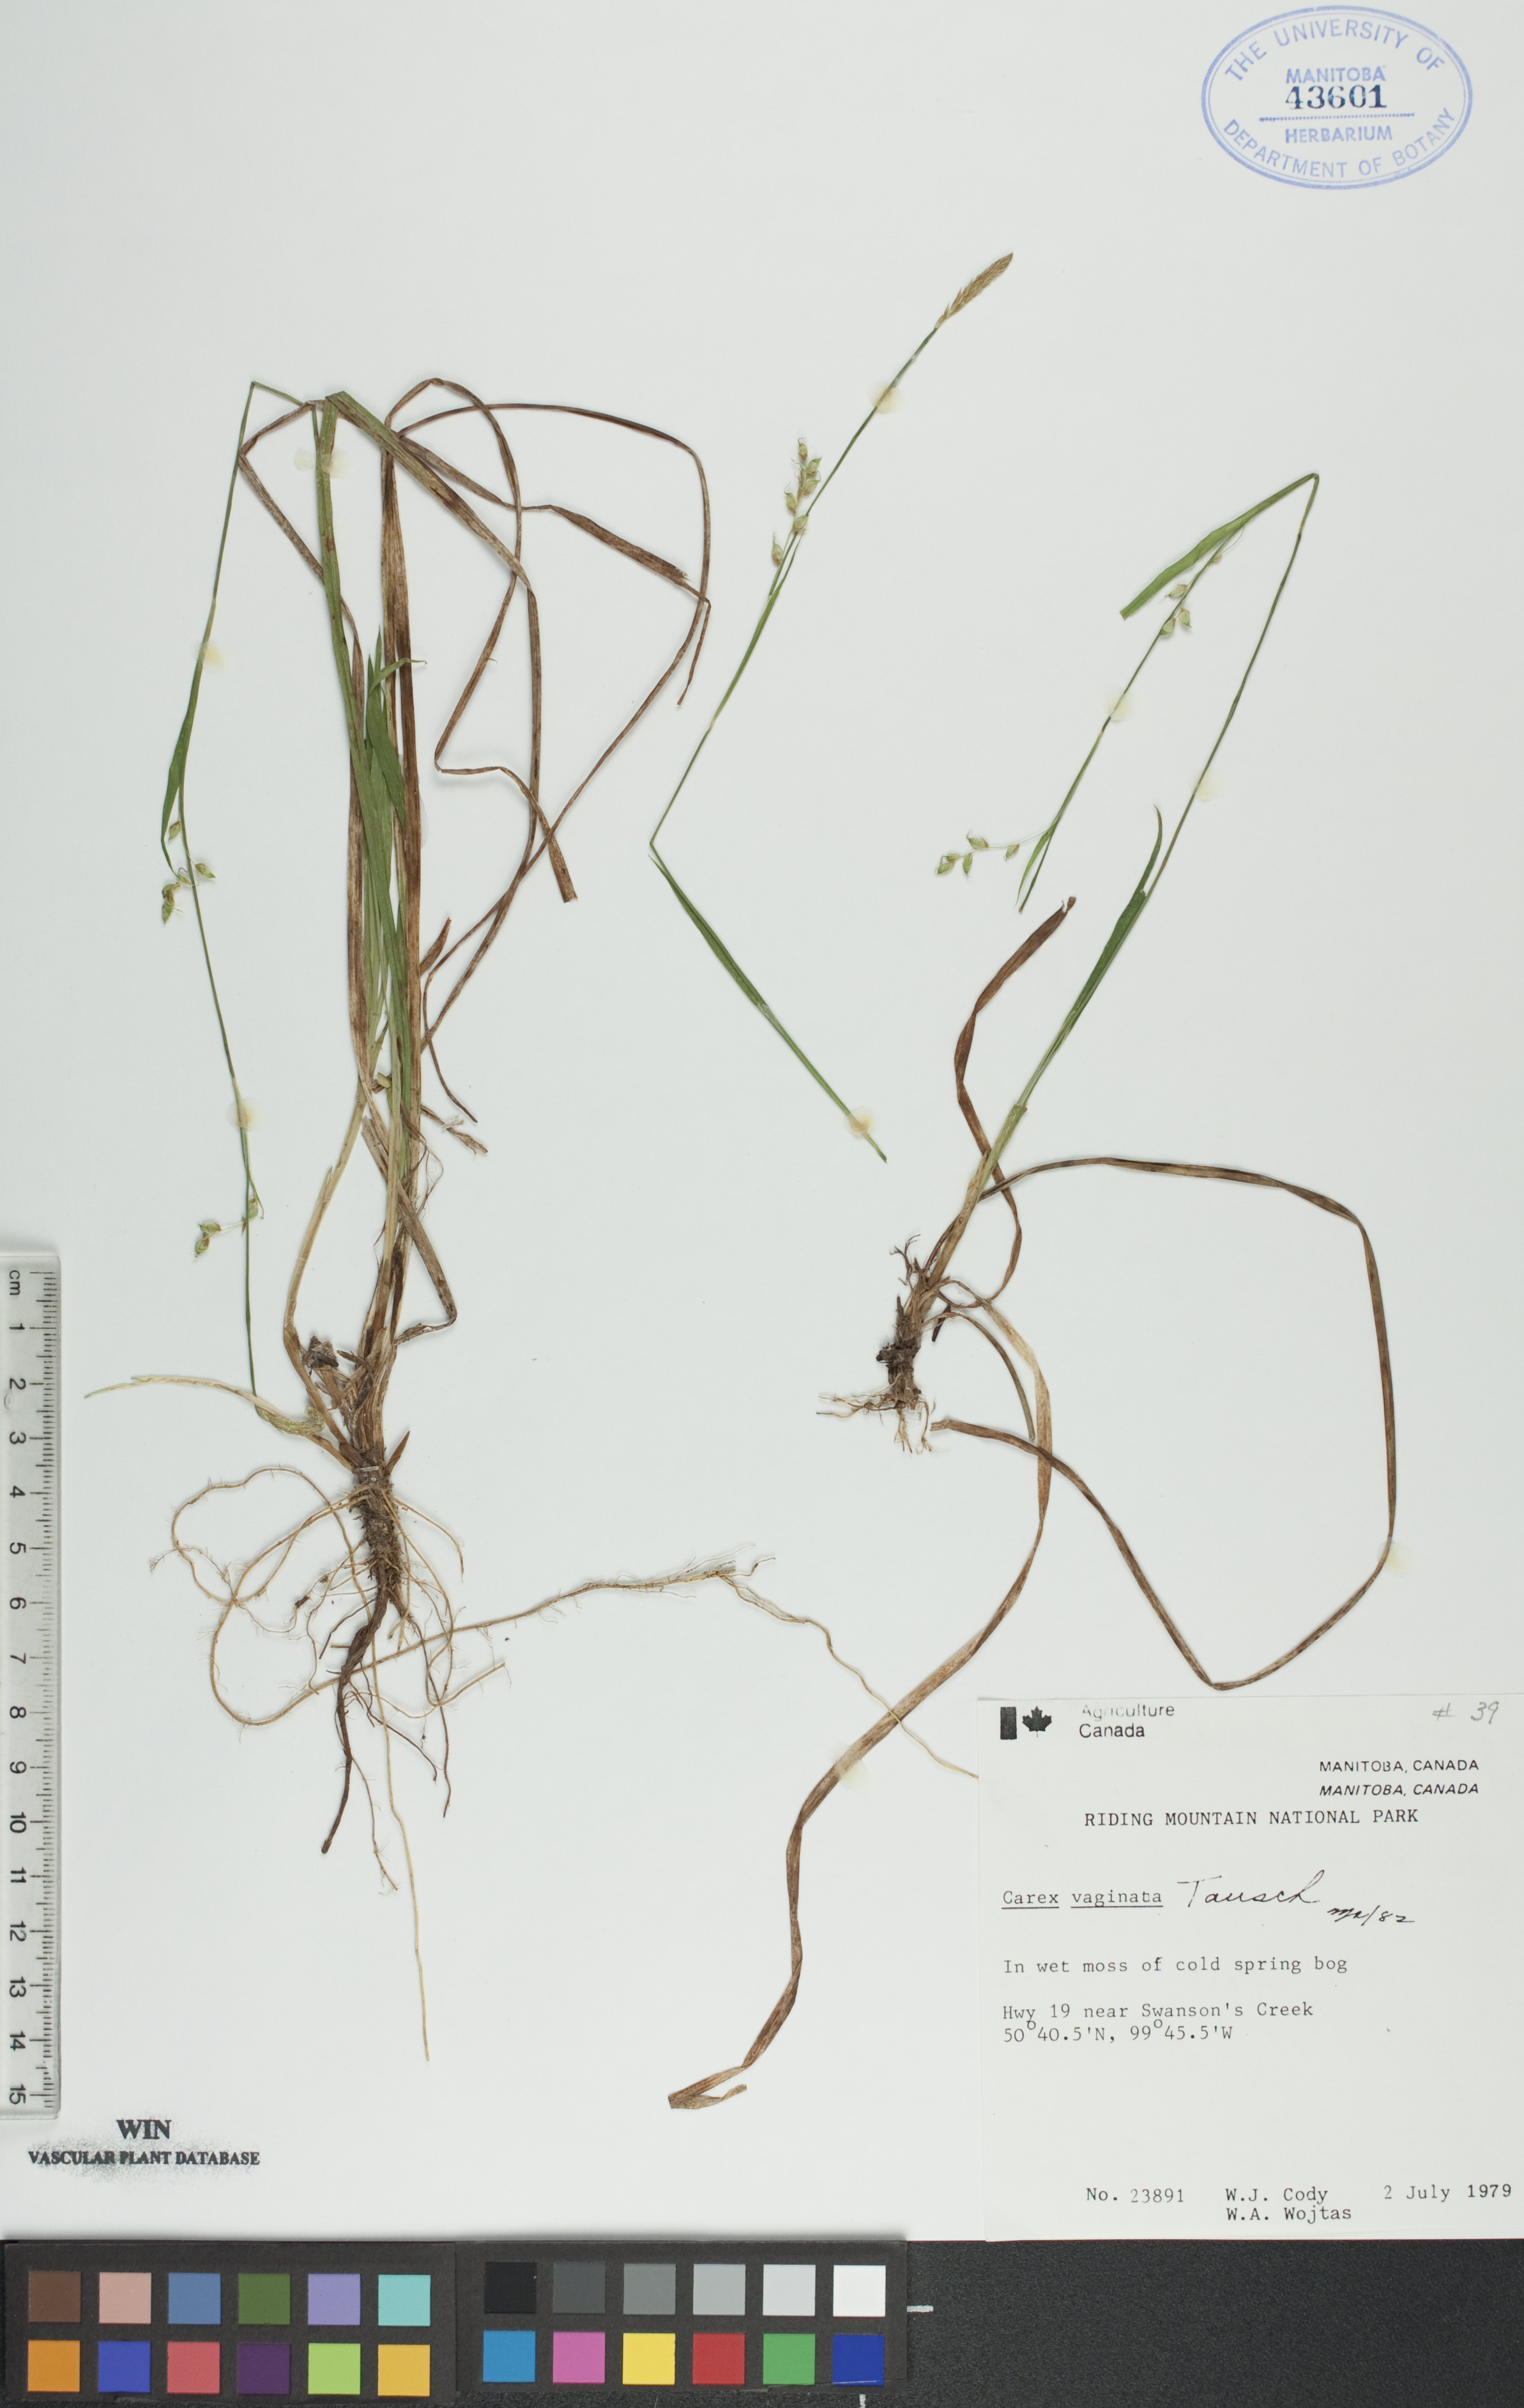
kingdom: Plantae
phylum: Tracheophyta
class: Liliopsida
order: Poales
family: Cyperaceae
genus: Carex
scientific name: Carex vaginata
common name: Sheathed sedge
